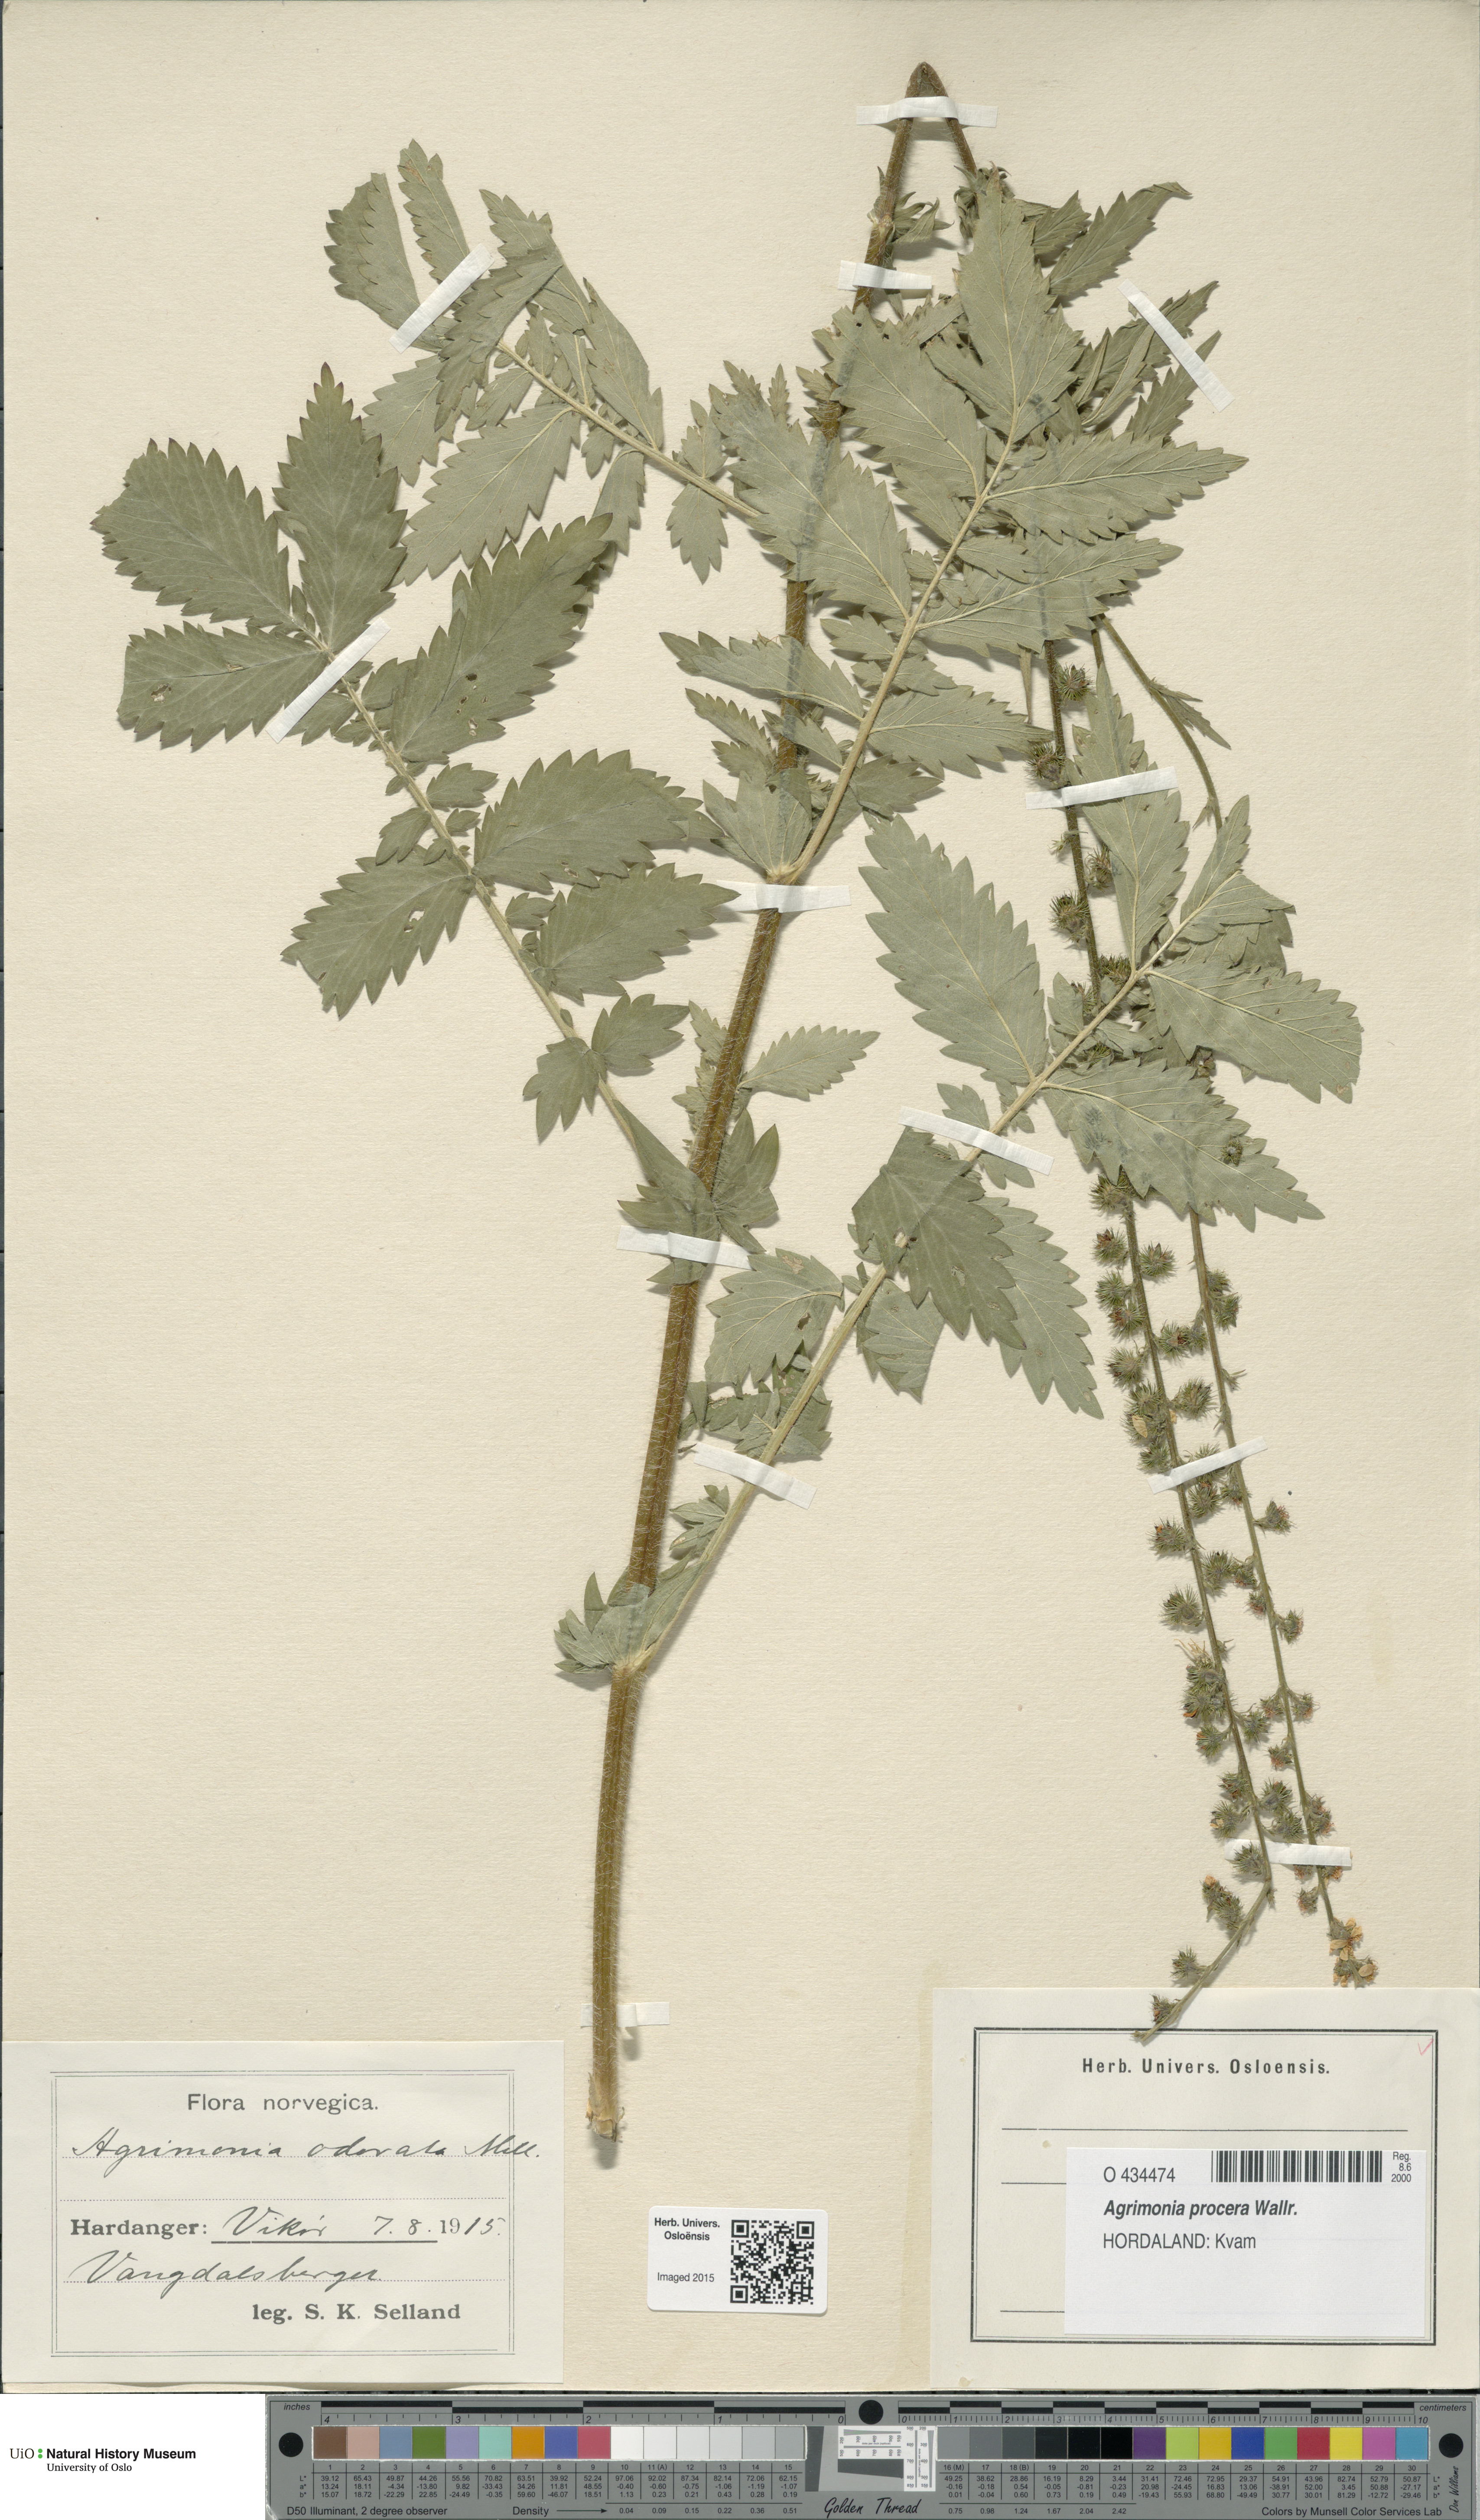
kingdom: Plantae
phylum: Tracheophyta
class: Magnoliopsida
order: Rosales
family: Rosaceae
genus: Agrimonia
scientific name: Agrimonia procera
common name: Fragrant agrimony
